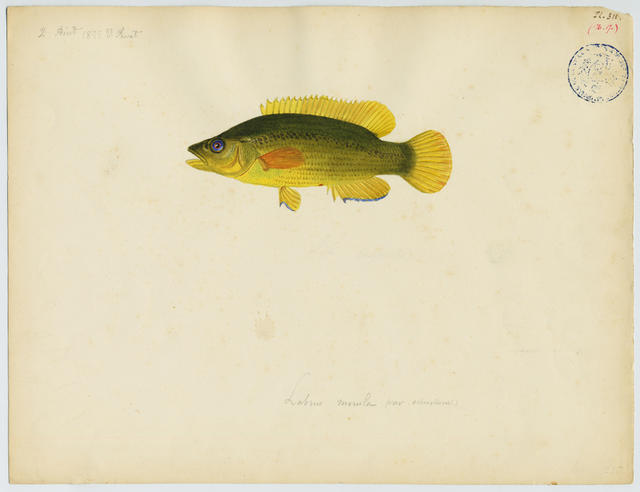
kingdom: Animalia
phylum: Chordata
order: Perciformes
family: Labridae
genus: Labrus
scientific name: Labrus merula
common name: Brown wrasse
